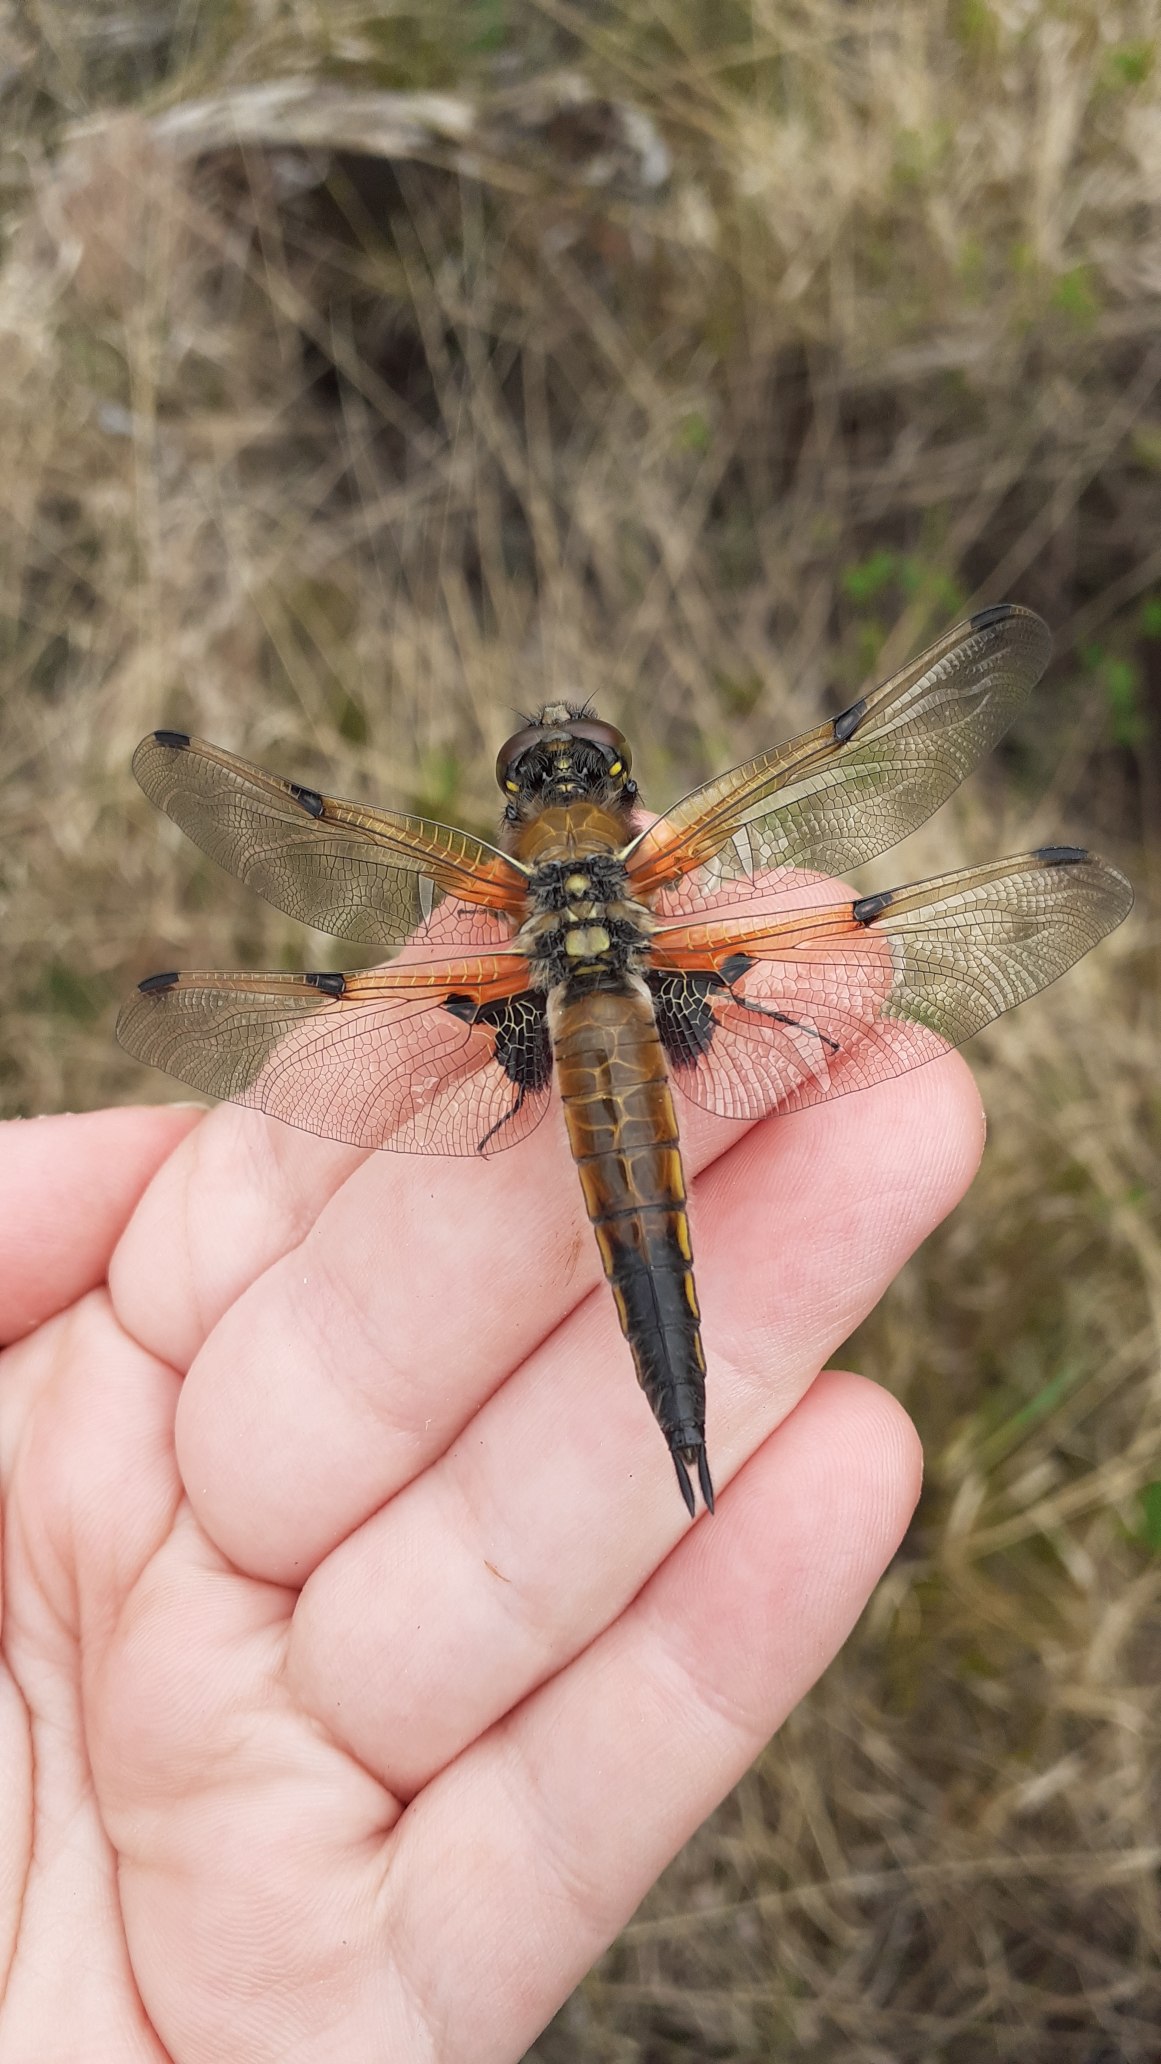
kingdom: Animalia
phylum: Arthropoda
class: Insecta
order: Odonata
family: Libellulidae
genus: Libellula
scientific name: Libellula quadrimaculata
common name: Fireplettet libel
